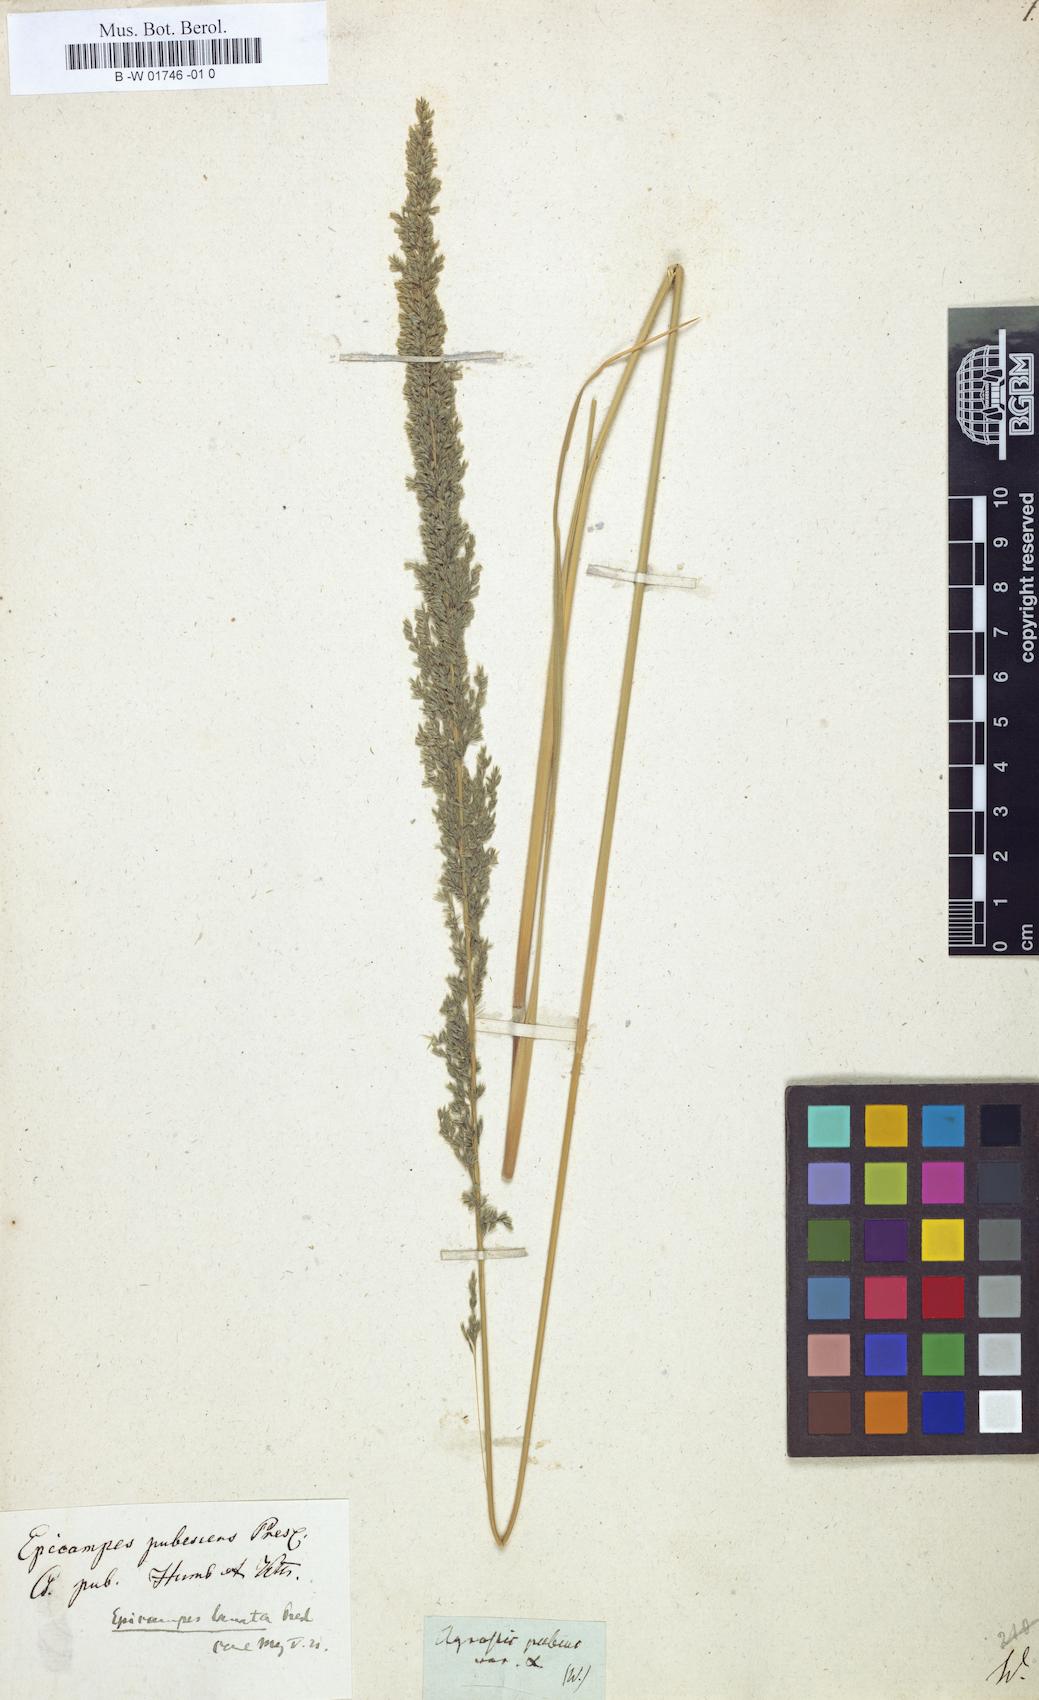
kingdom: Plantae
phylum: Tracheophyta
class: Liliopsida
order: Poales
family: Poaceae
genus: Muhlenbergia
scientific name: Muhlenbergia pubescens
